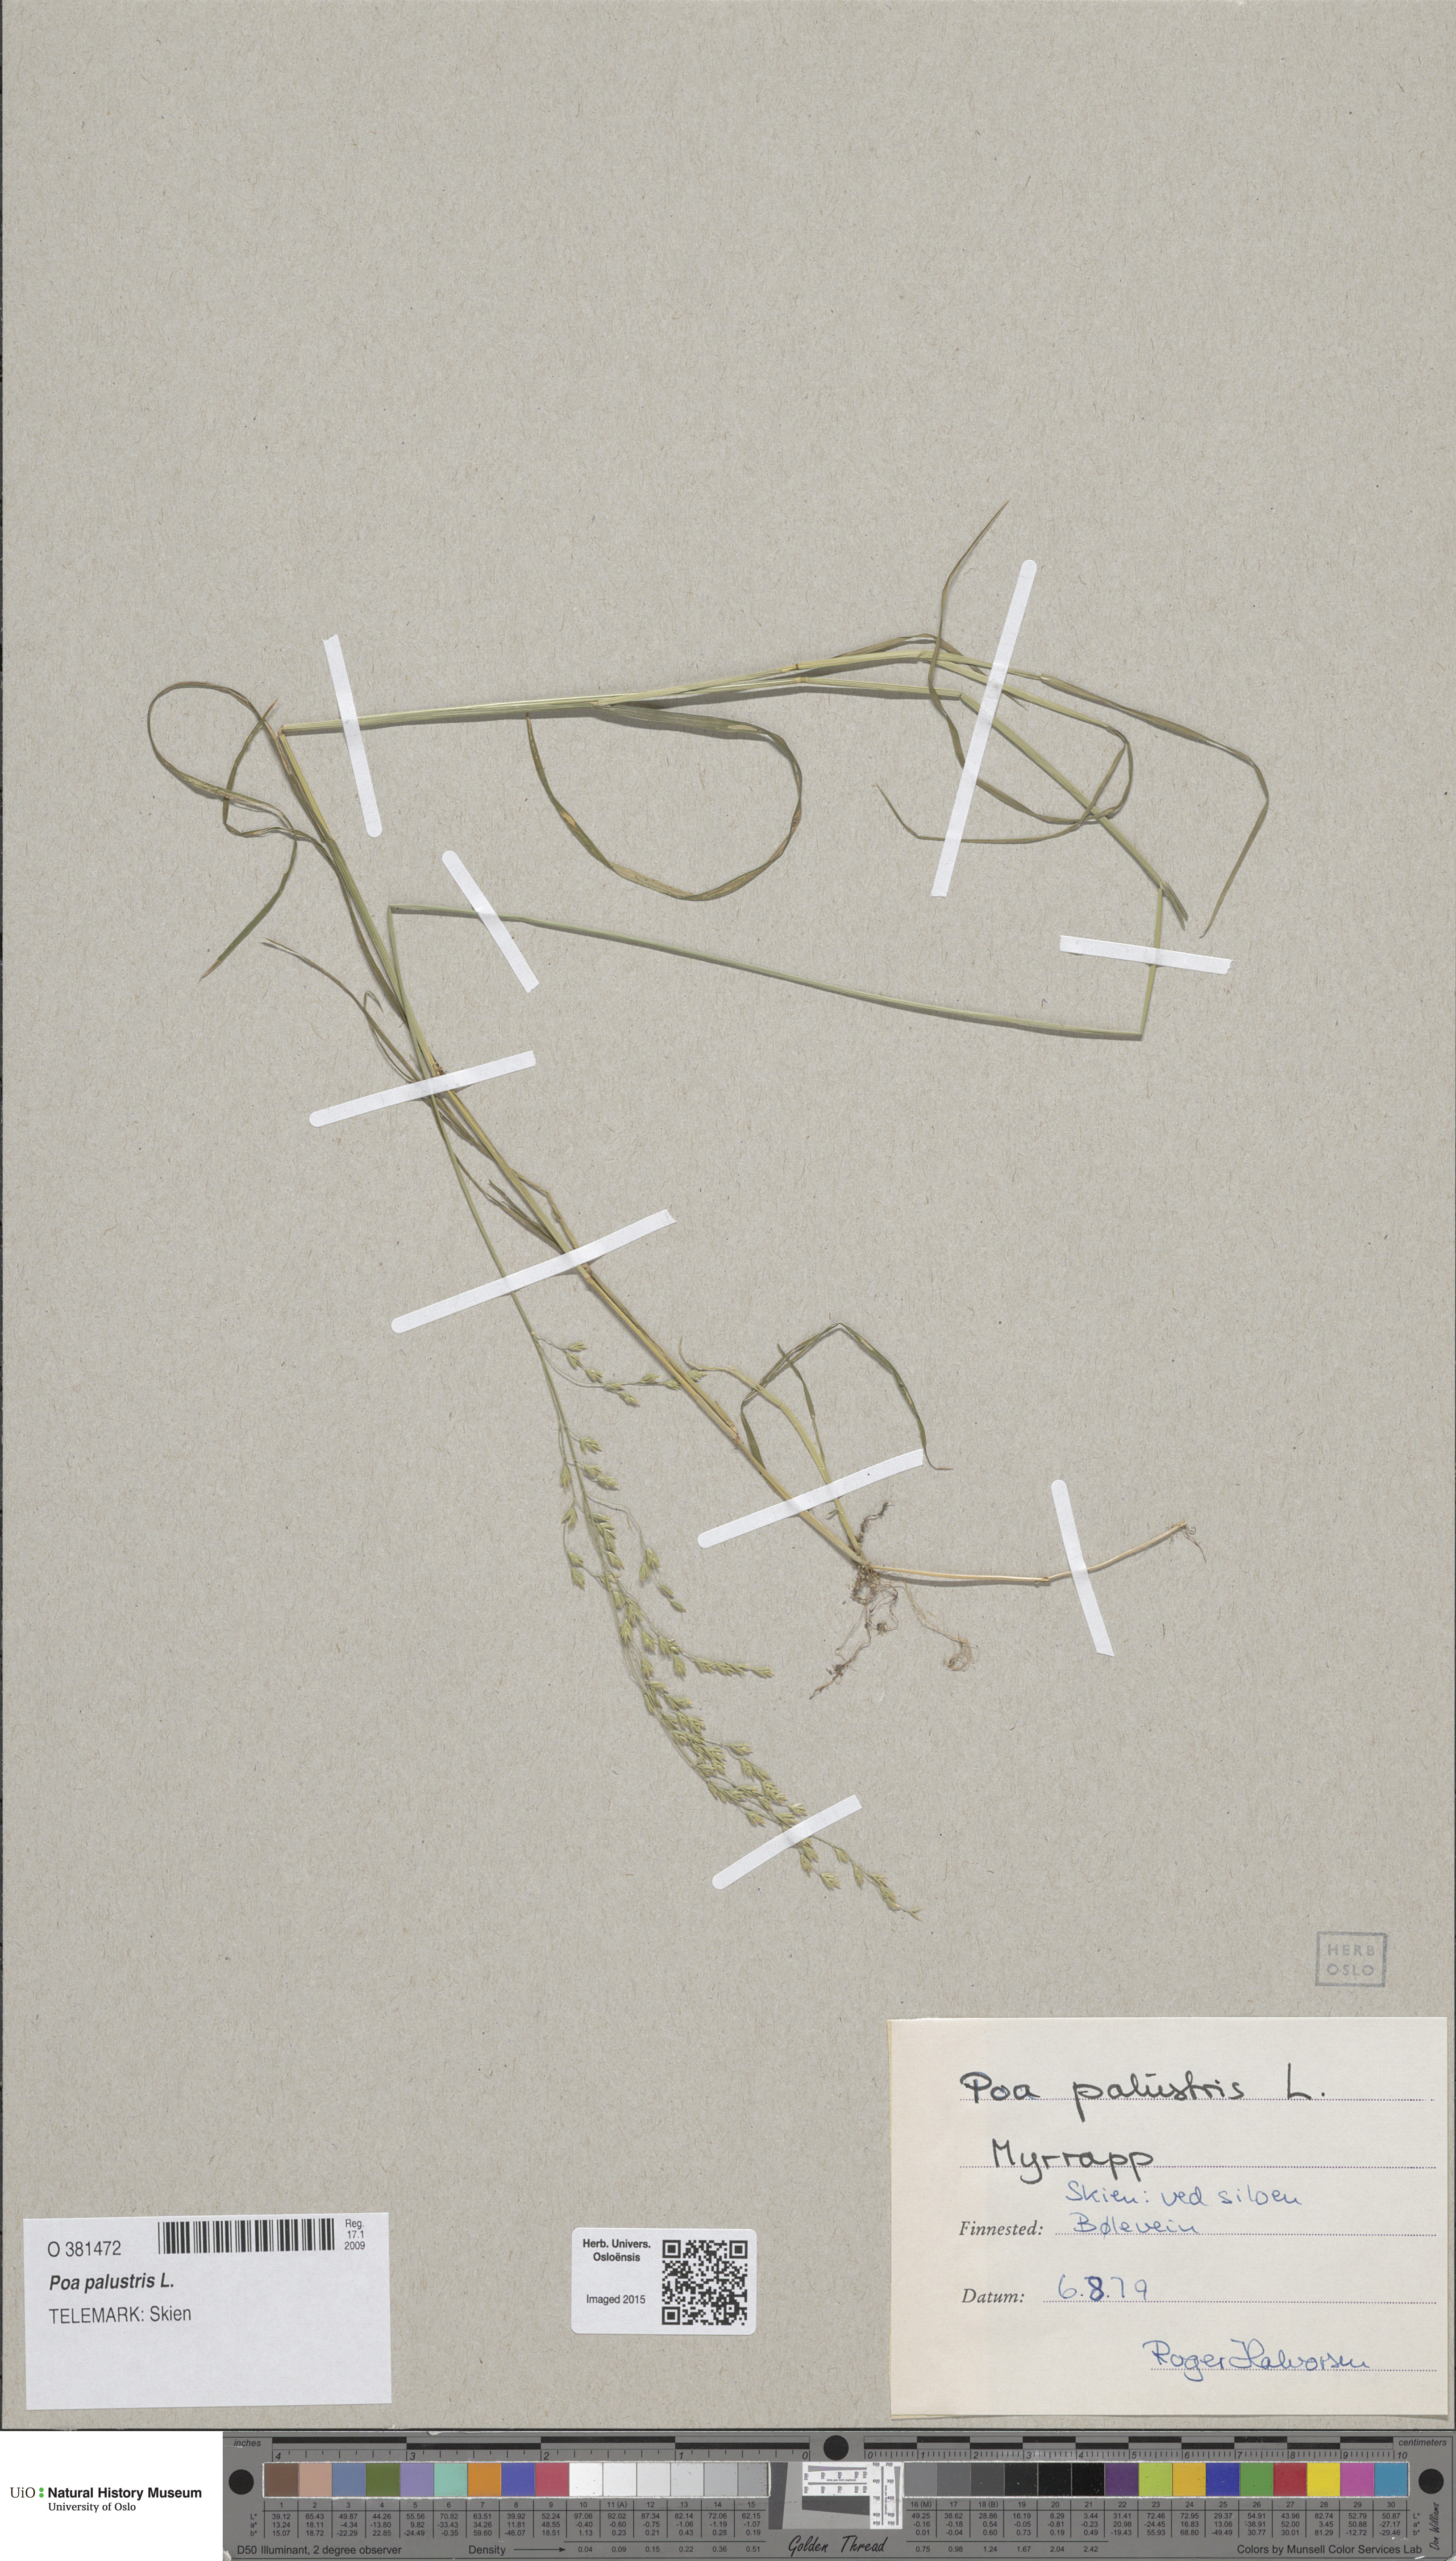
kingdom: Plantae
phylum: Tracheophyta
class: Liliopsida
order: Poales
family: Poaceae
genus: Poa
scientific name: Poa palustris
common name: Swamp meadow-grass
